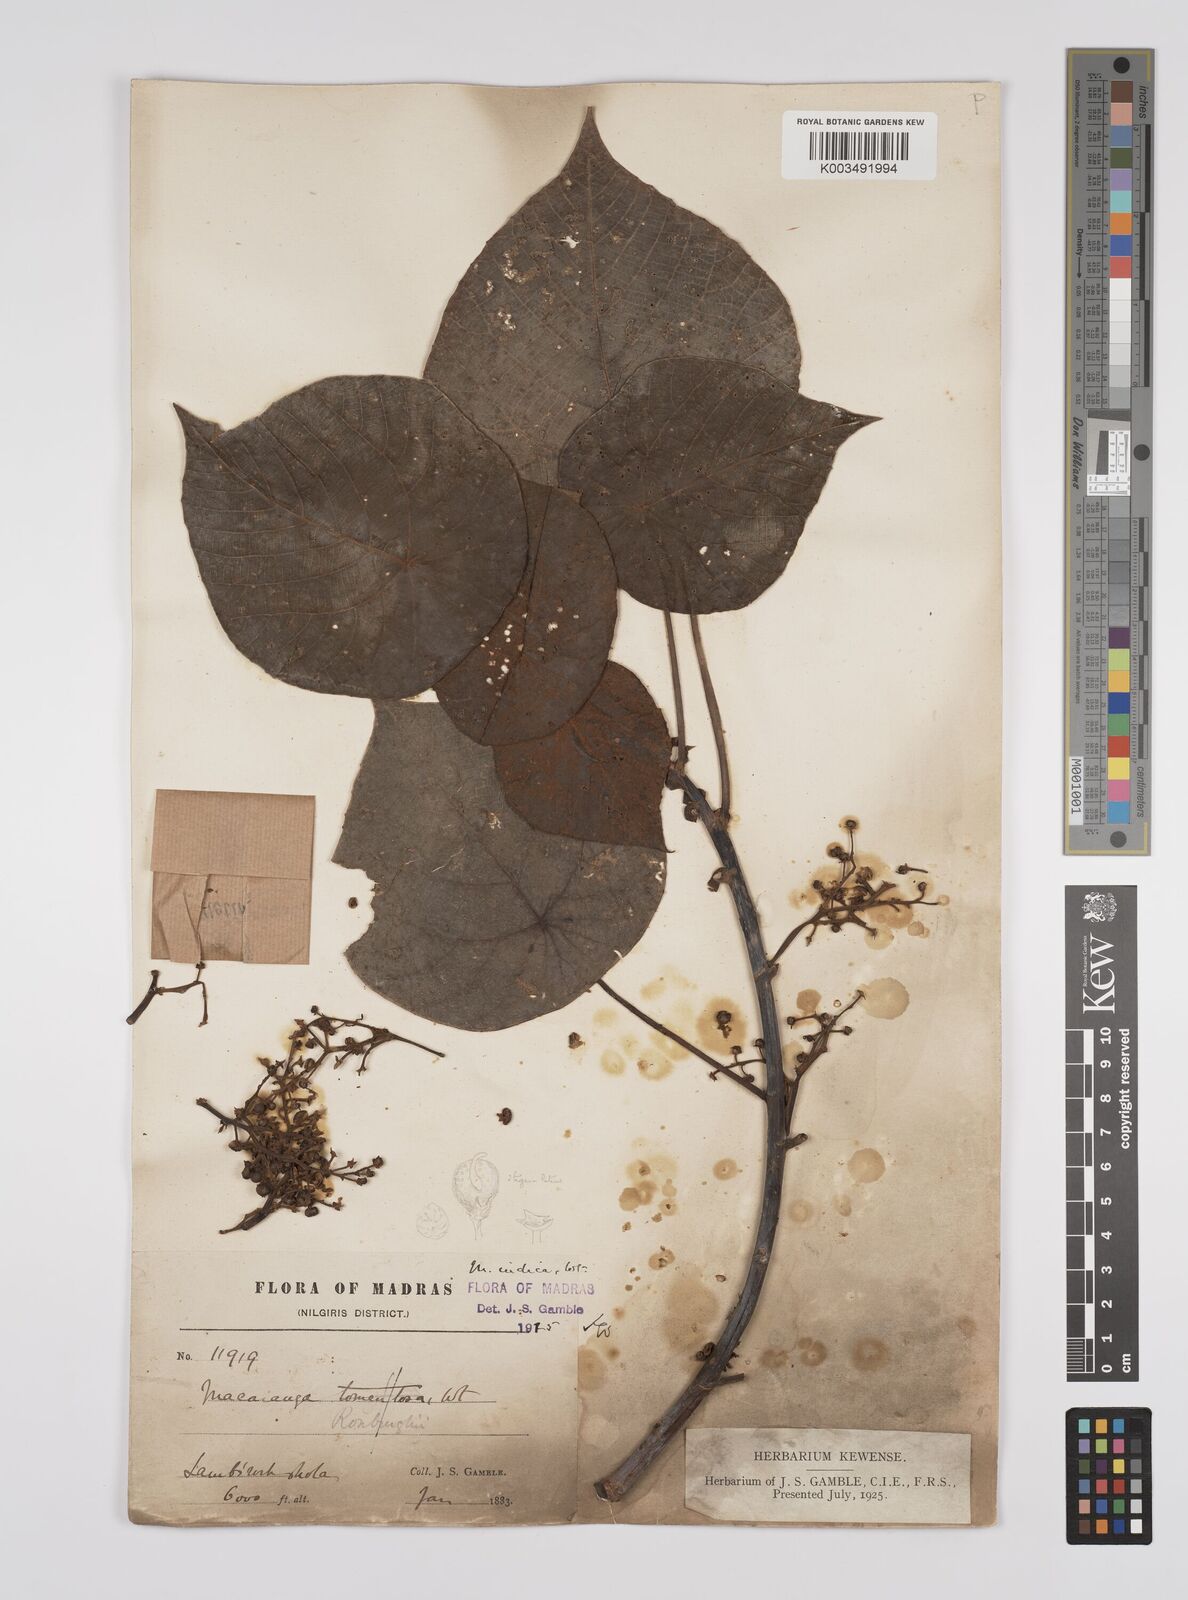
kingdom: Plantae
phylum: Tracheophyta
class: Magnoliopsida
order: Malpighiales
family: Euphorbiaceae
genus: Macaranga
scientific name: Macaranga indica
